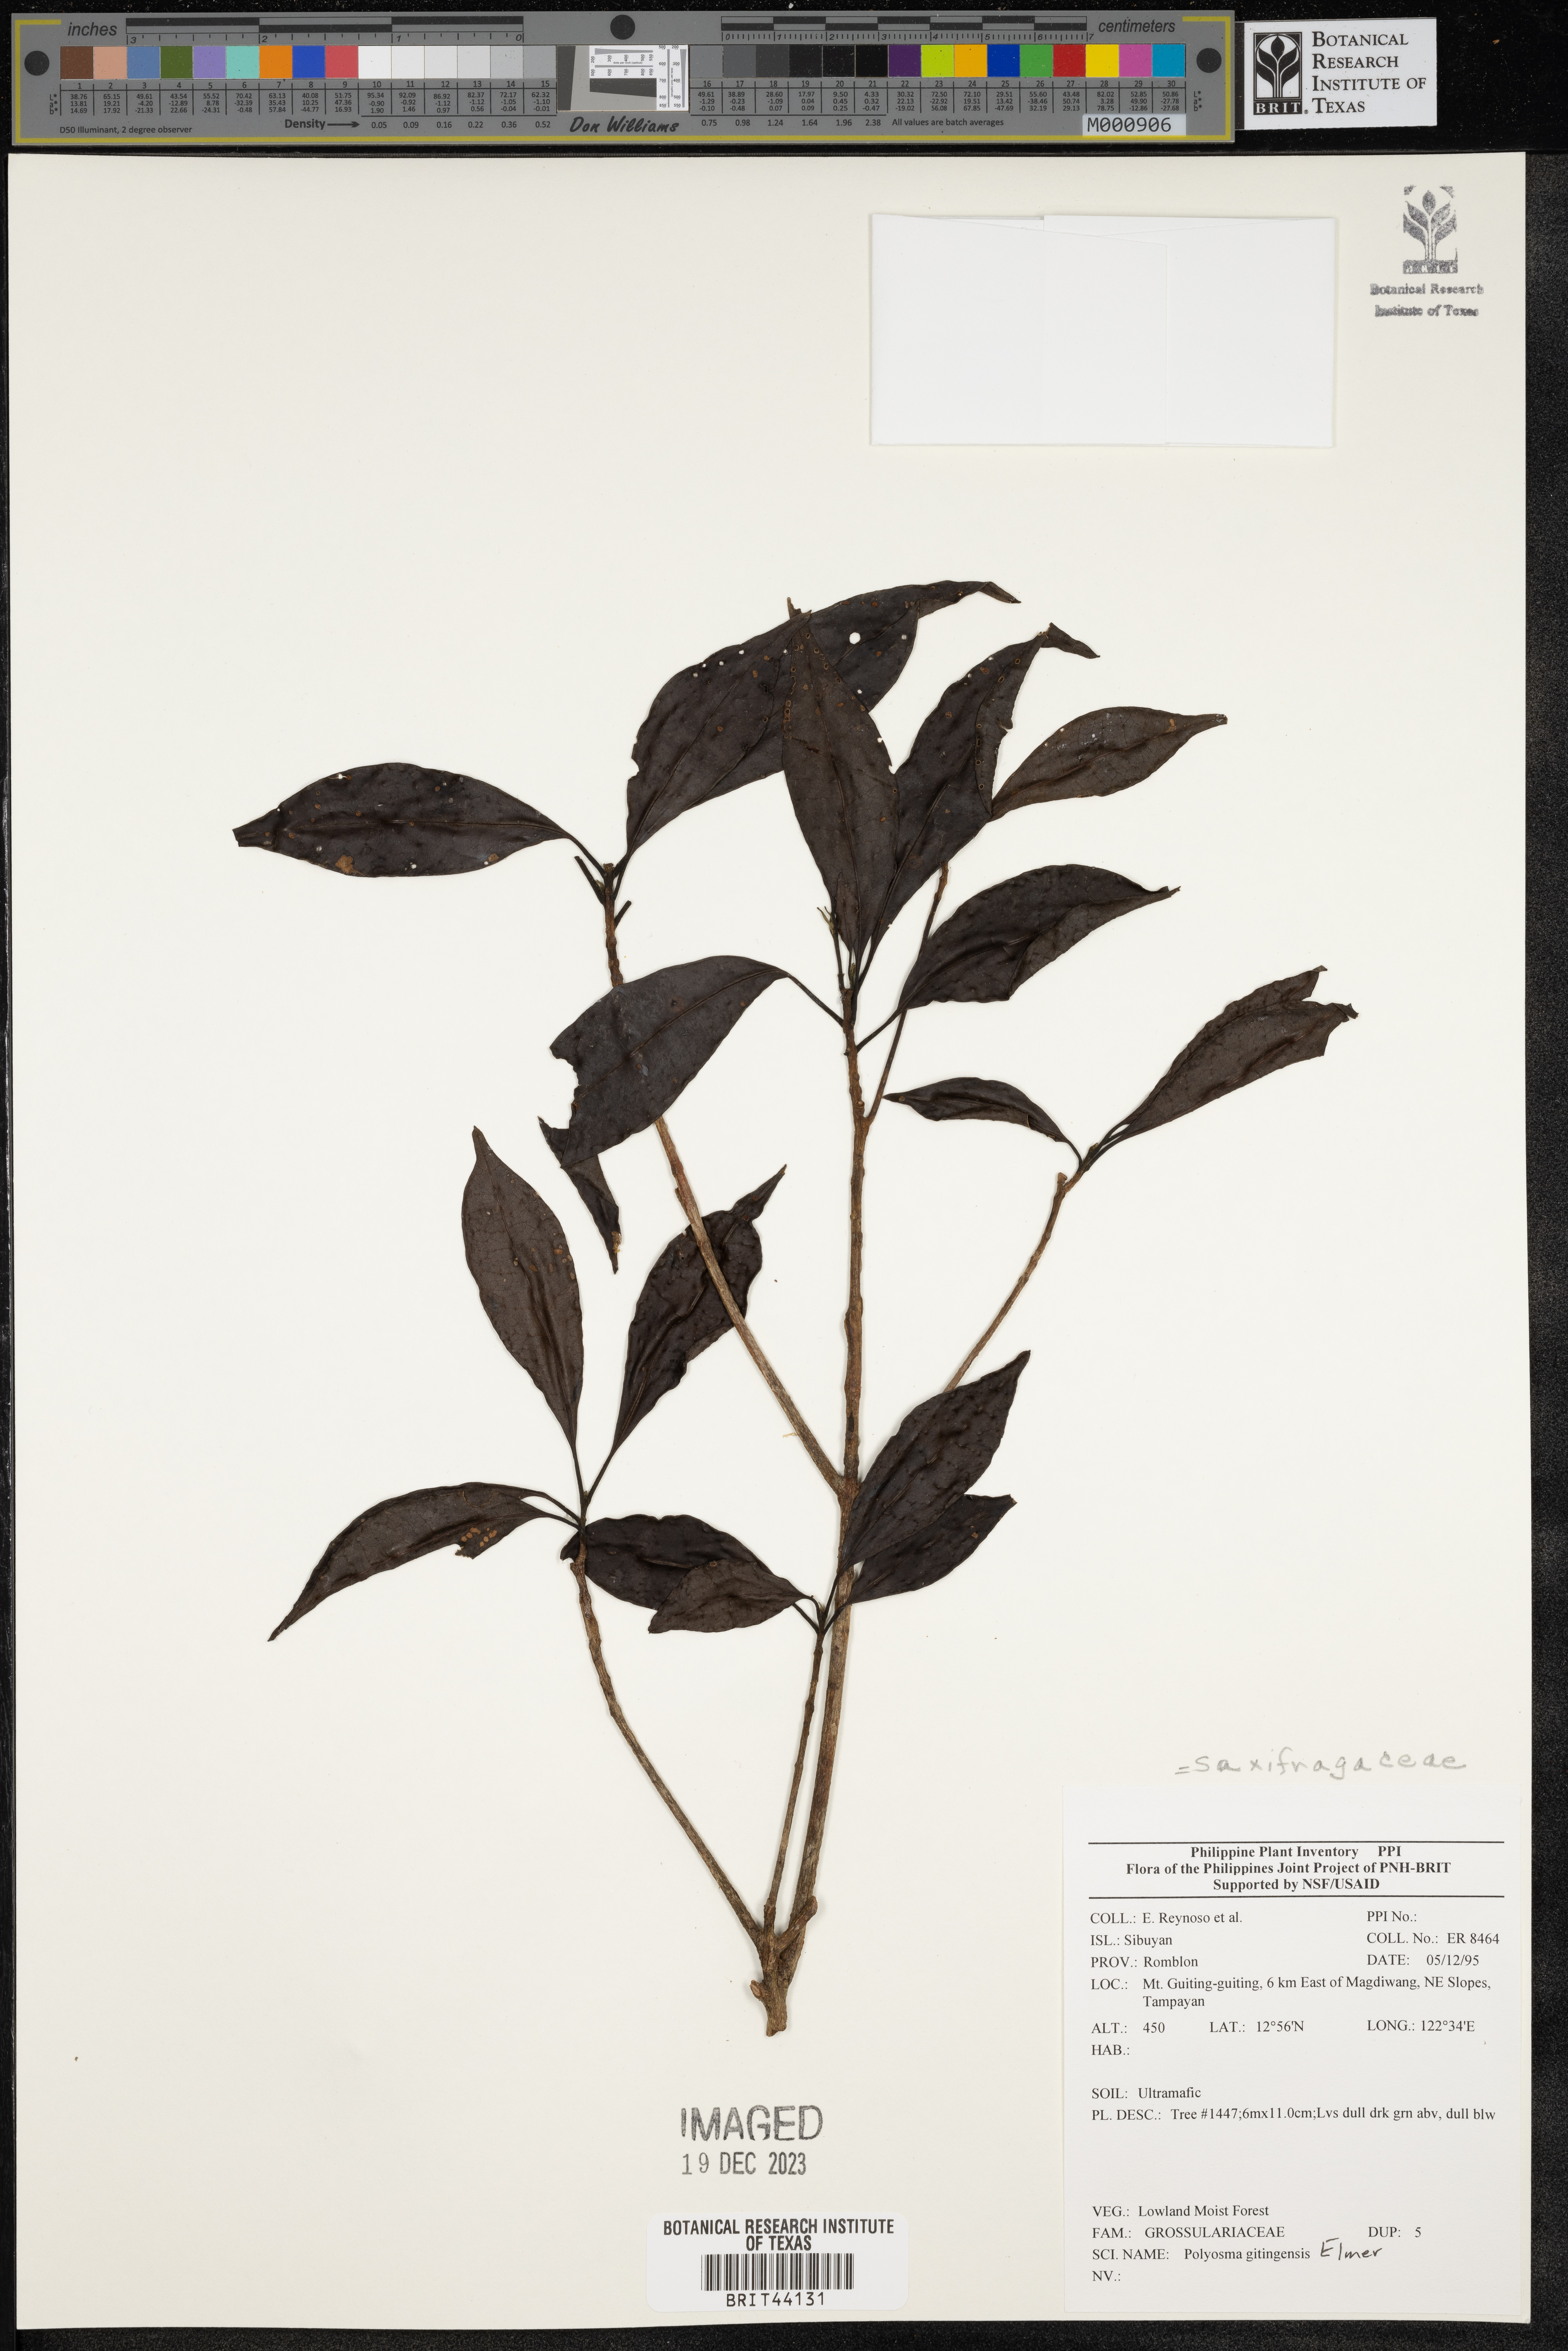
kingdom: Plantae
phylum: Tracheophyta
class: Magnoliopsida
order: Escalloniales
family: Escalloniaceae
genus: Polyosma
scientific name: Polyosma
